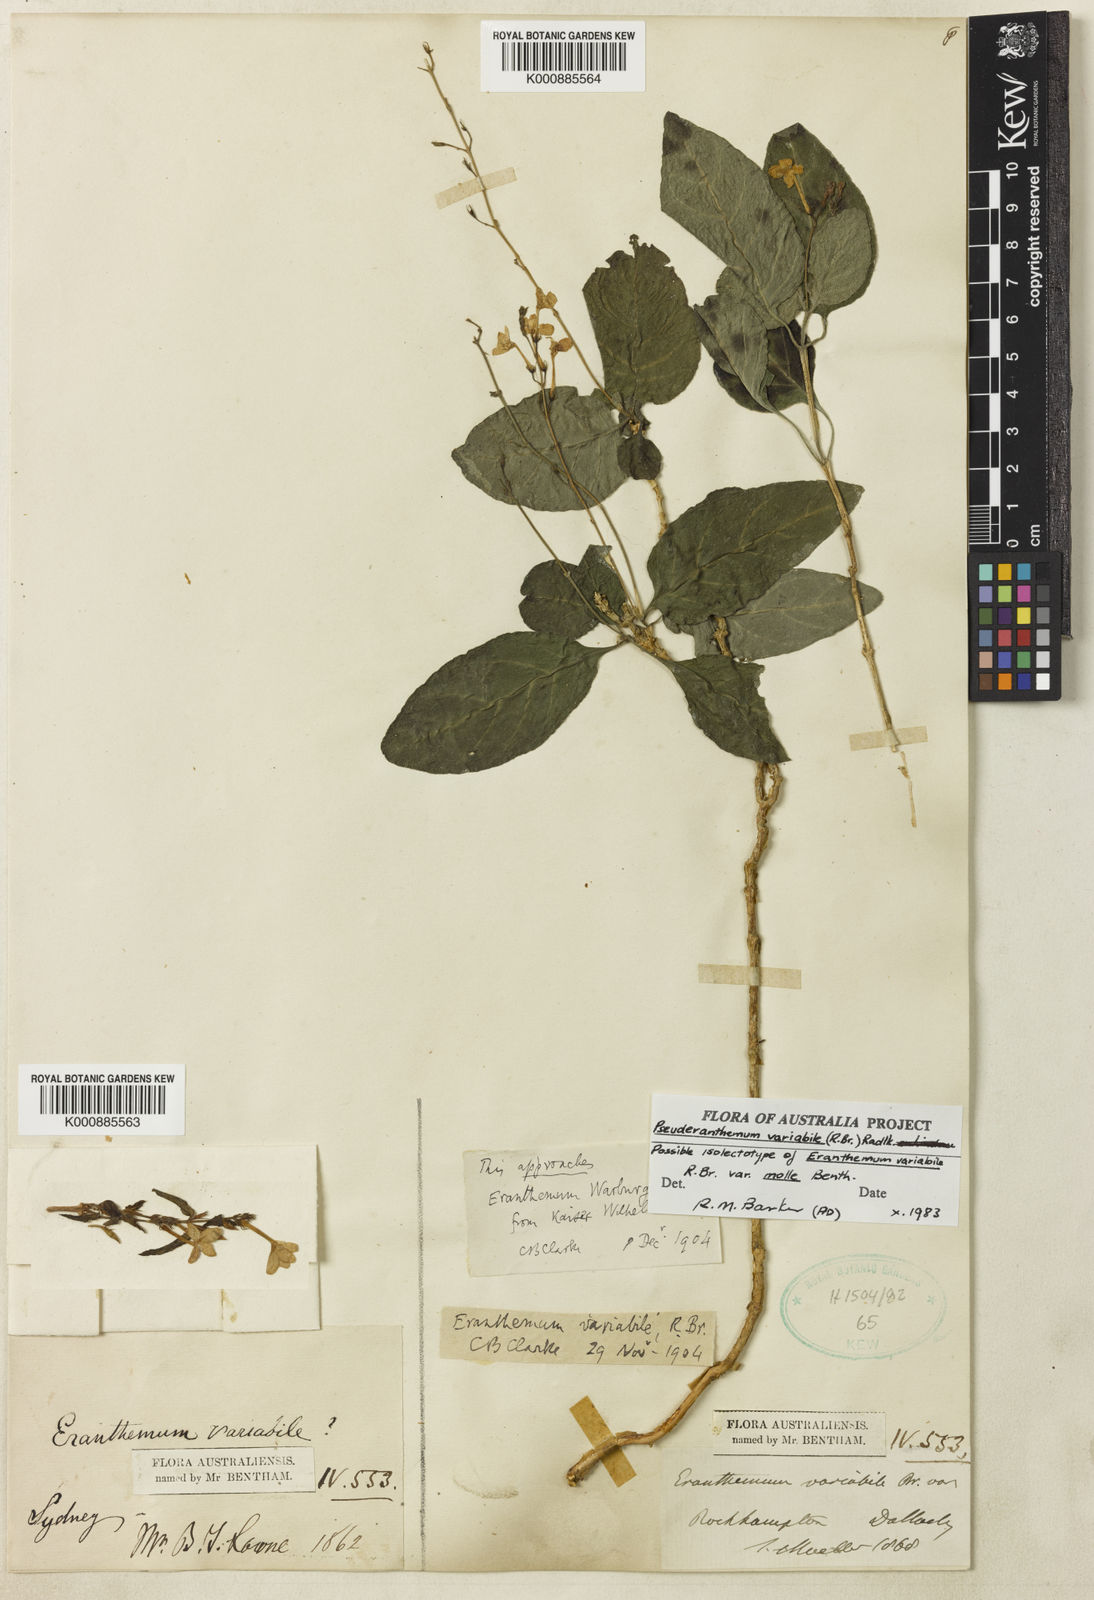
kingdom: Plantae
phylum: Tracheophyta
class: Magnoliopsida
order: Lamiales
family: Acanthaceae
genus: Pseuderanthemum
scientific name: Pseuderanthemum variabile
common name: Night and afternoon
